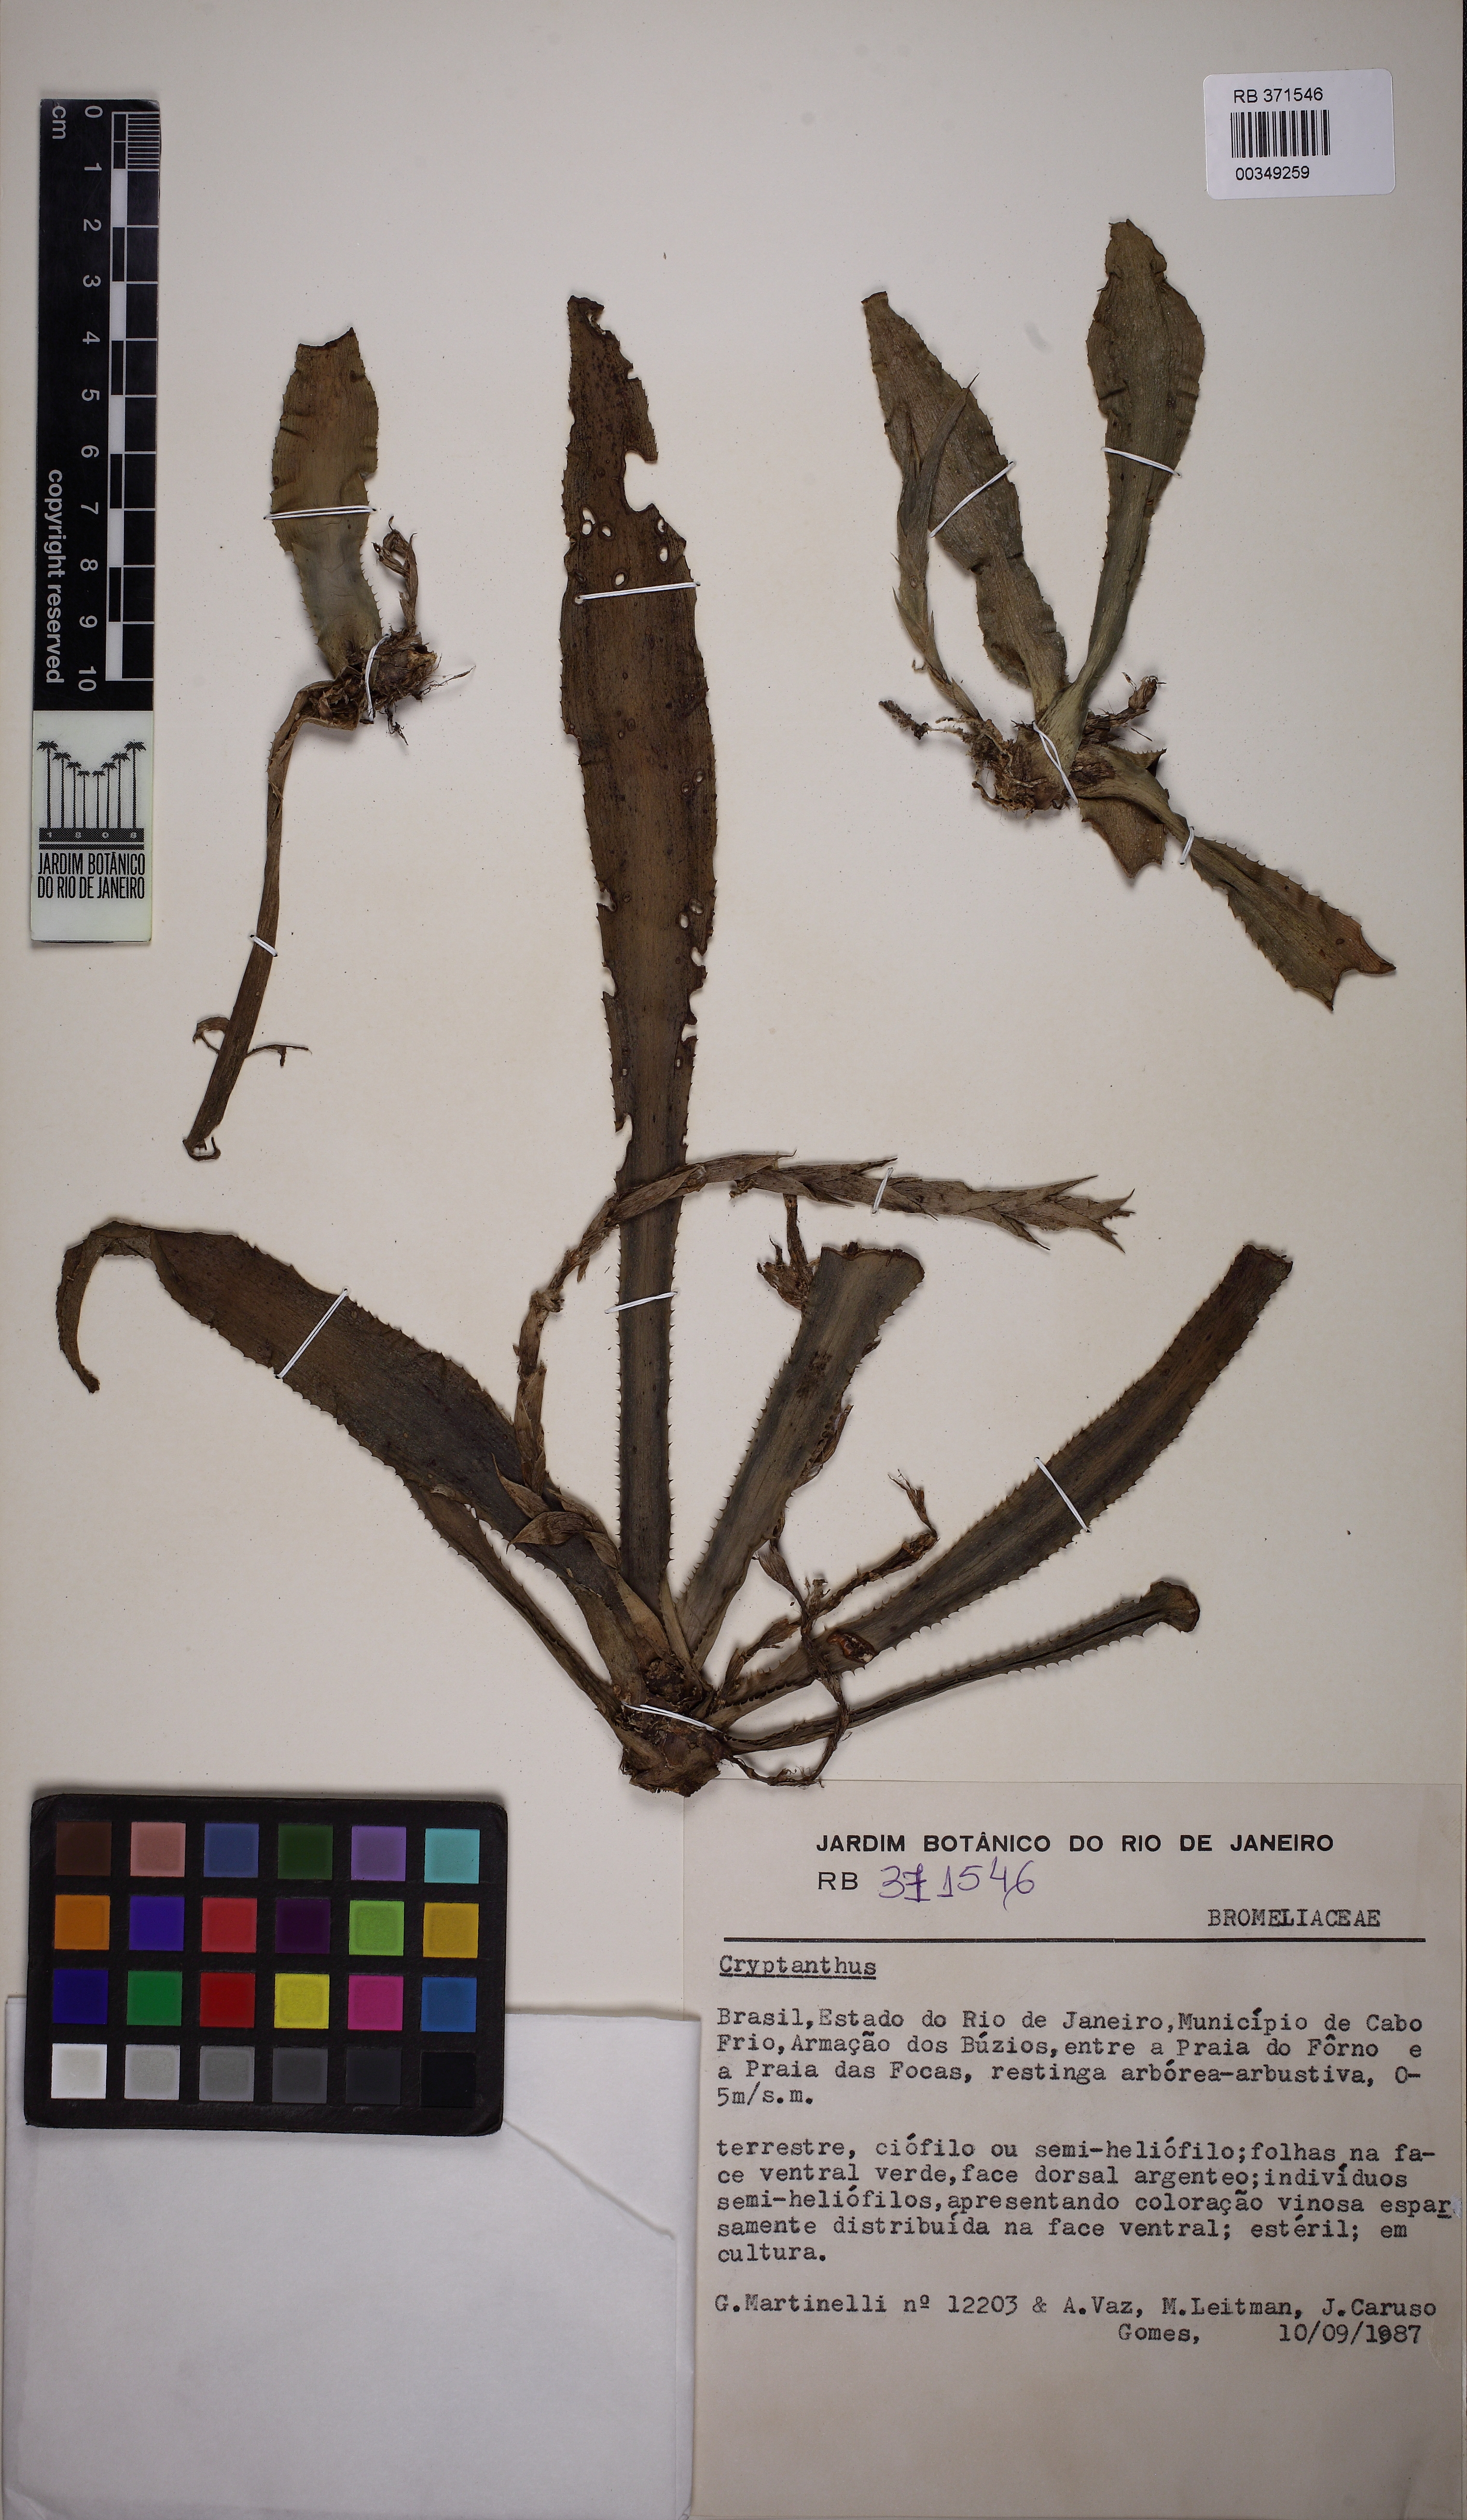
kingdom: Plantae
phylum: Tracheophyta
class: Liliopsida
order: Poales
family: Bromeliaceae
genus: Cryptanthus
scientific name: Cryptanthus
